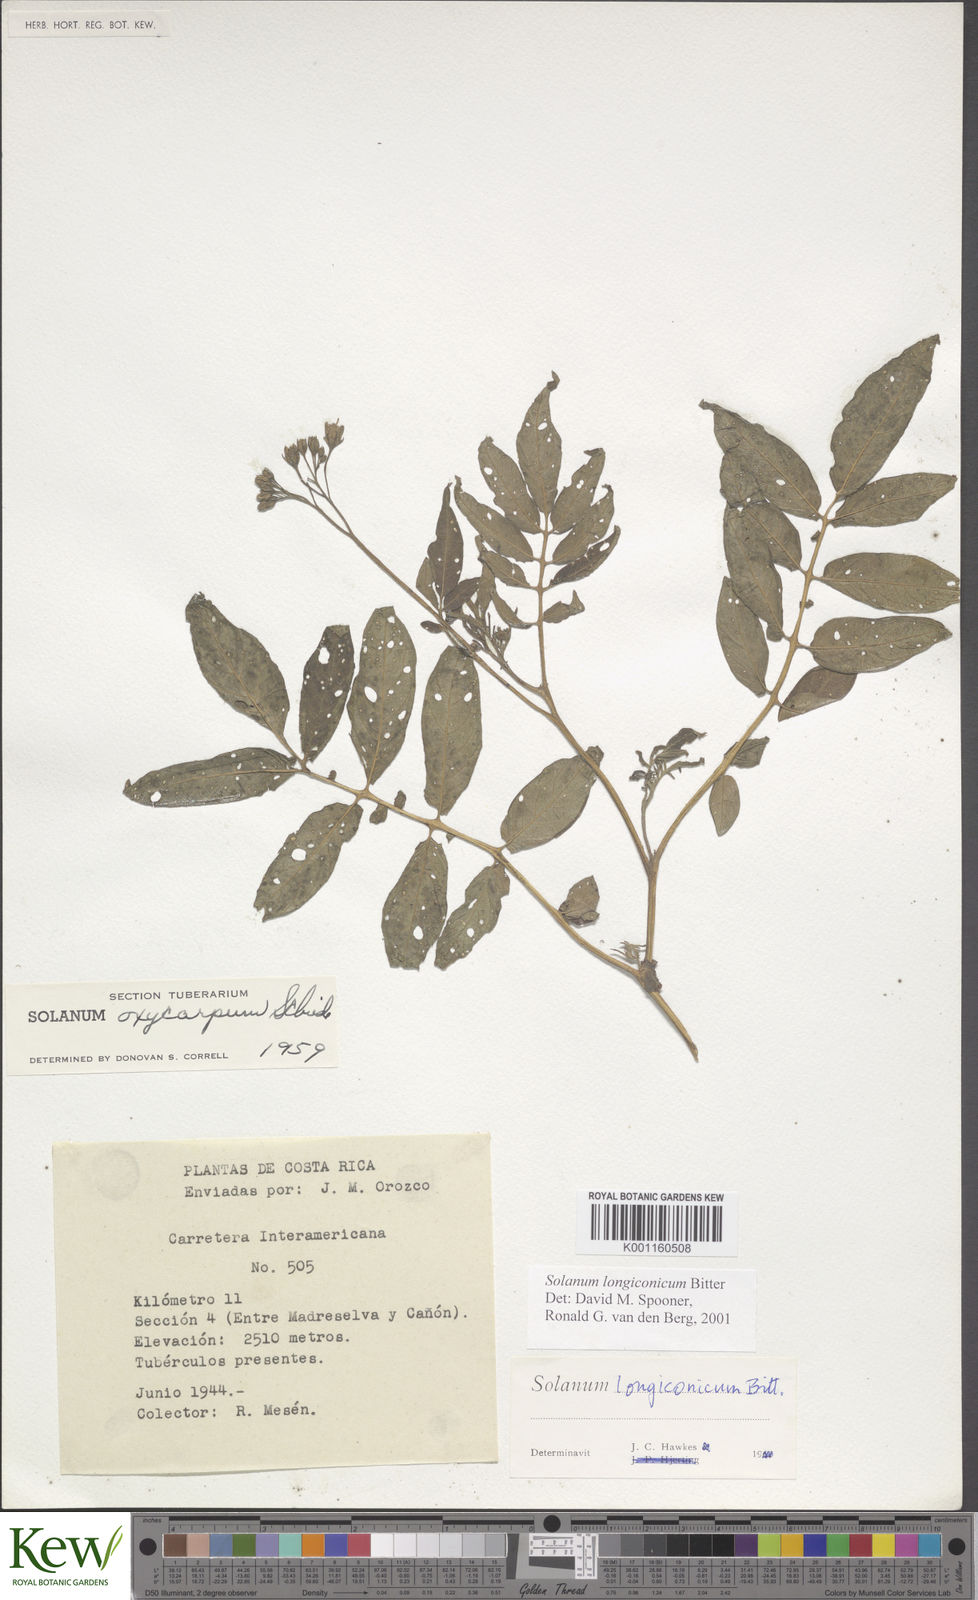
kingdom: Plantae
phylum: Tracheophyta
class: Magnoliopsida
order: Solanales
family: Solanaceae
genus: Solanum
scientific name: Solanum longiconicum
